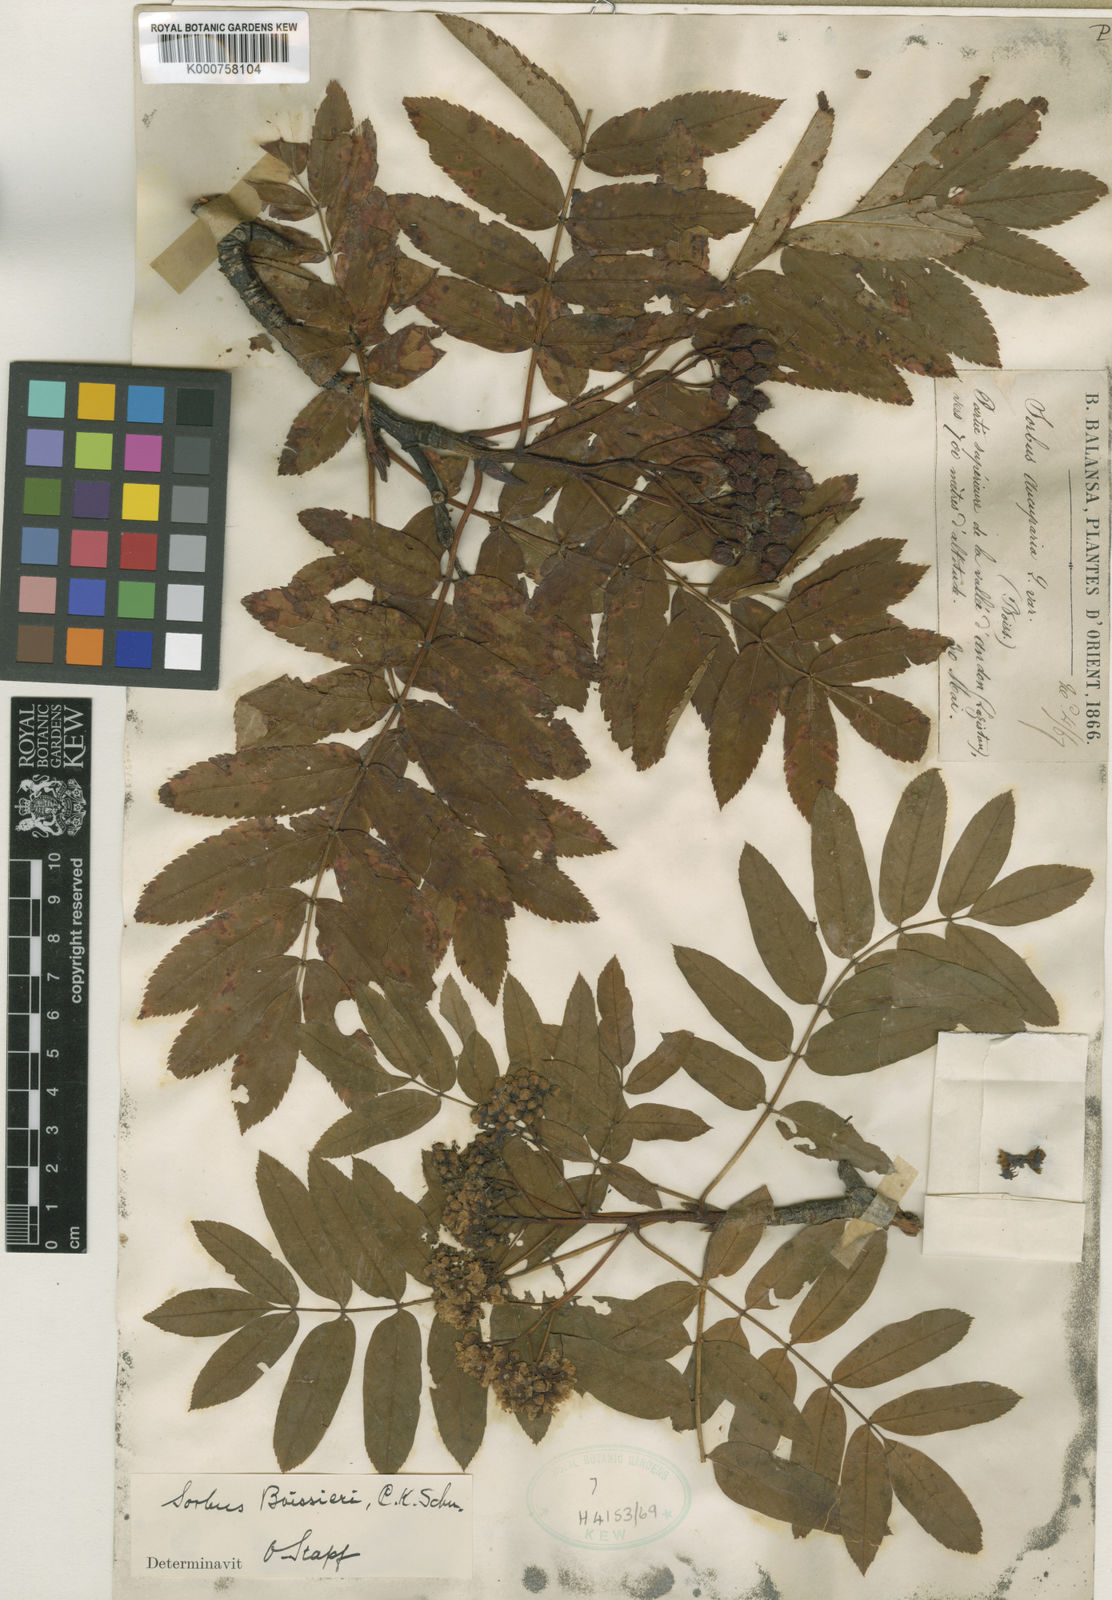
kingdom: Plantae
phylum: Tracheophyta
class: Magnoliopsida
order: Rosales
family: Rosaceae
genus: Sorbus
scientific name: Sorbus aucuparia
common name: Rowan
